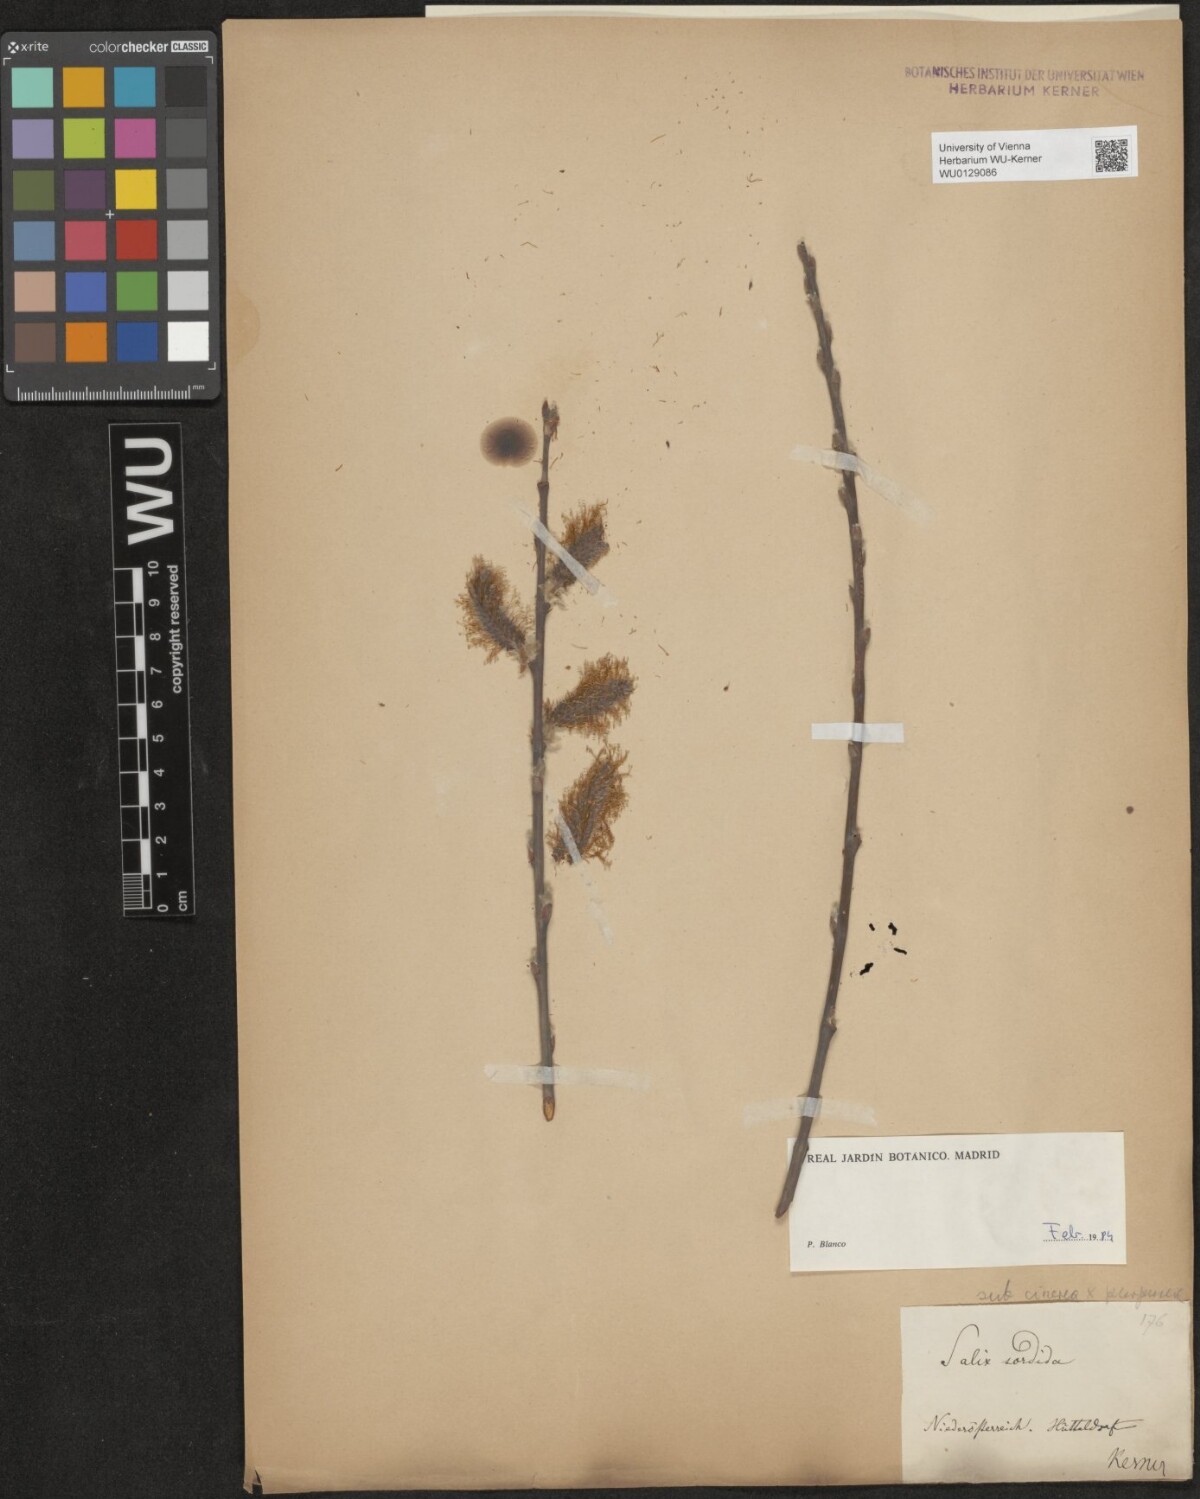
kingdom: Plantae
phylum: Tracheophyta
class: Magnoliopsida
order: Malpighiales
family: Salicaceae
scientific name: Salicaceae
